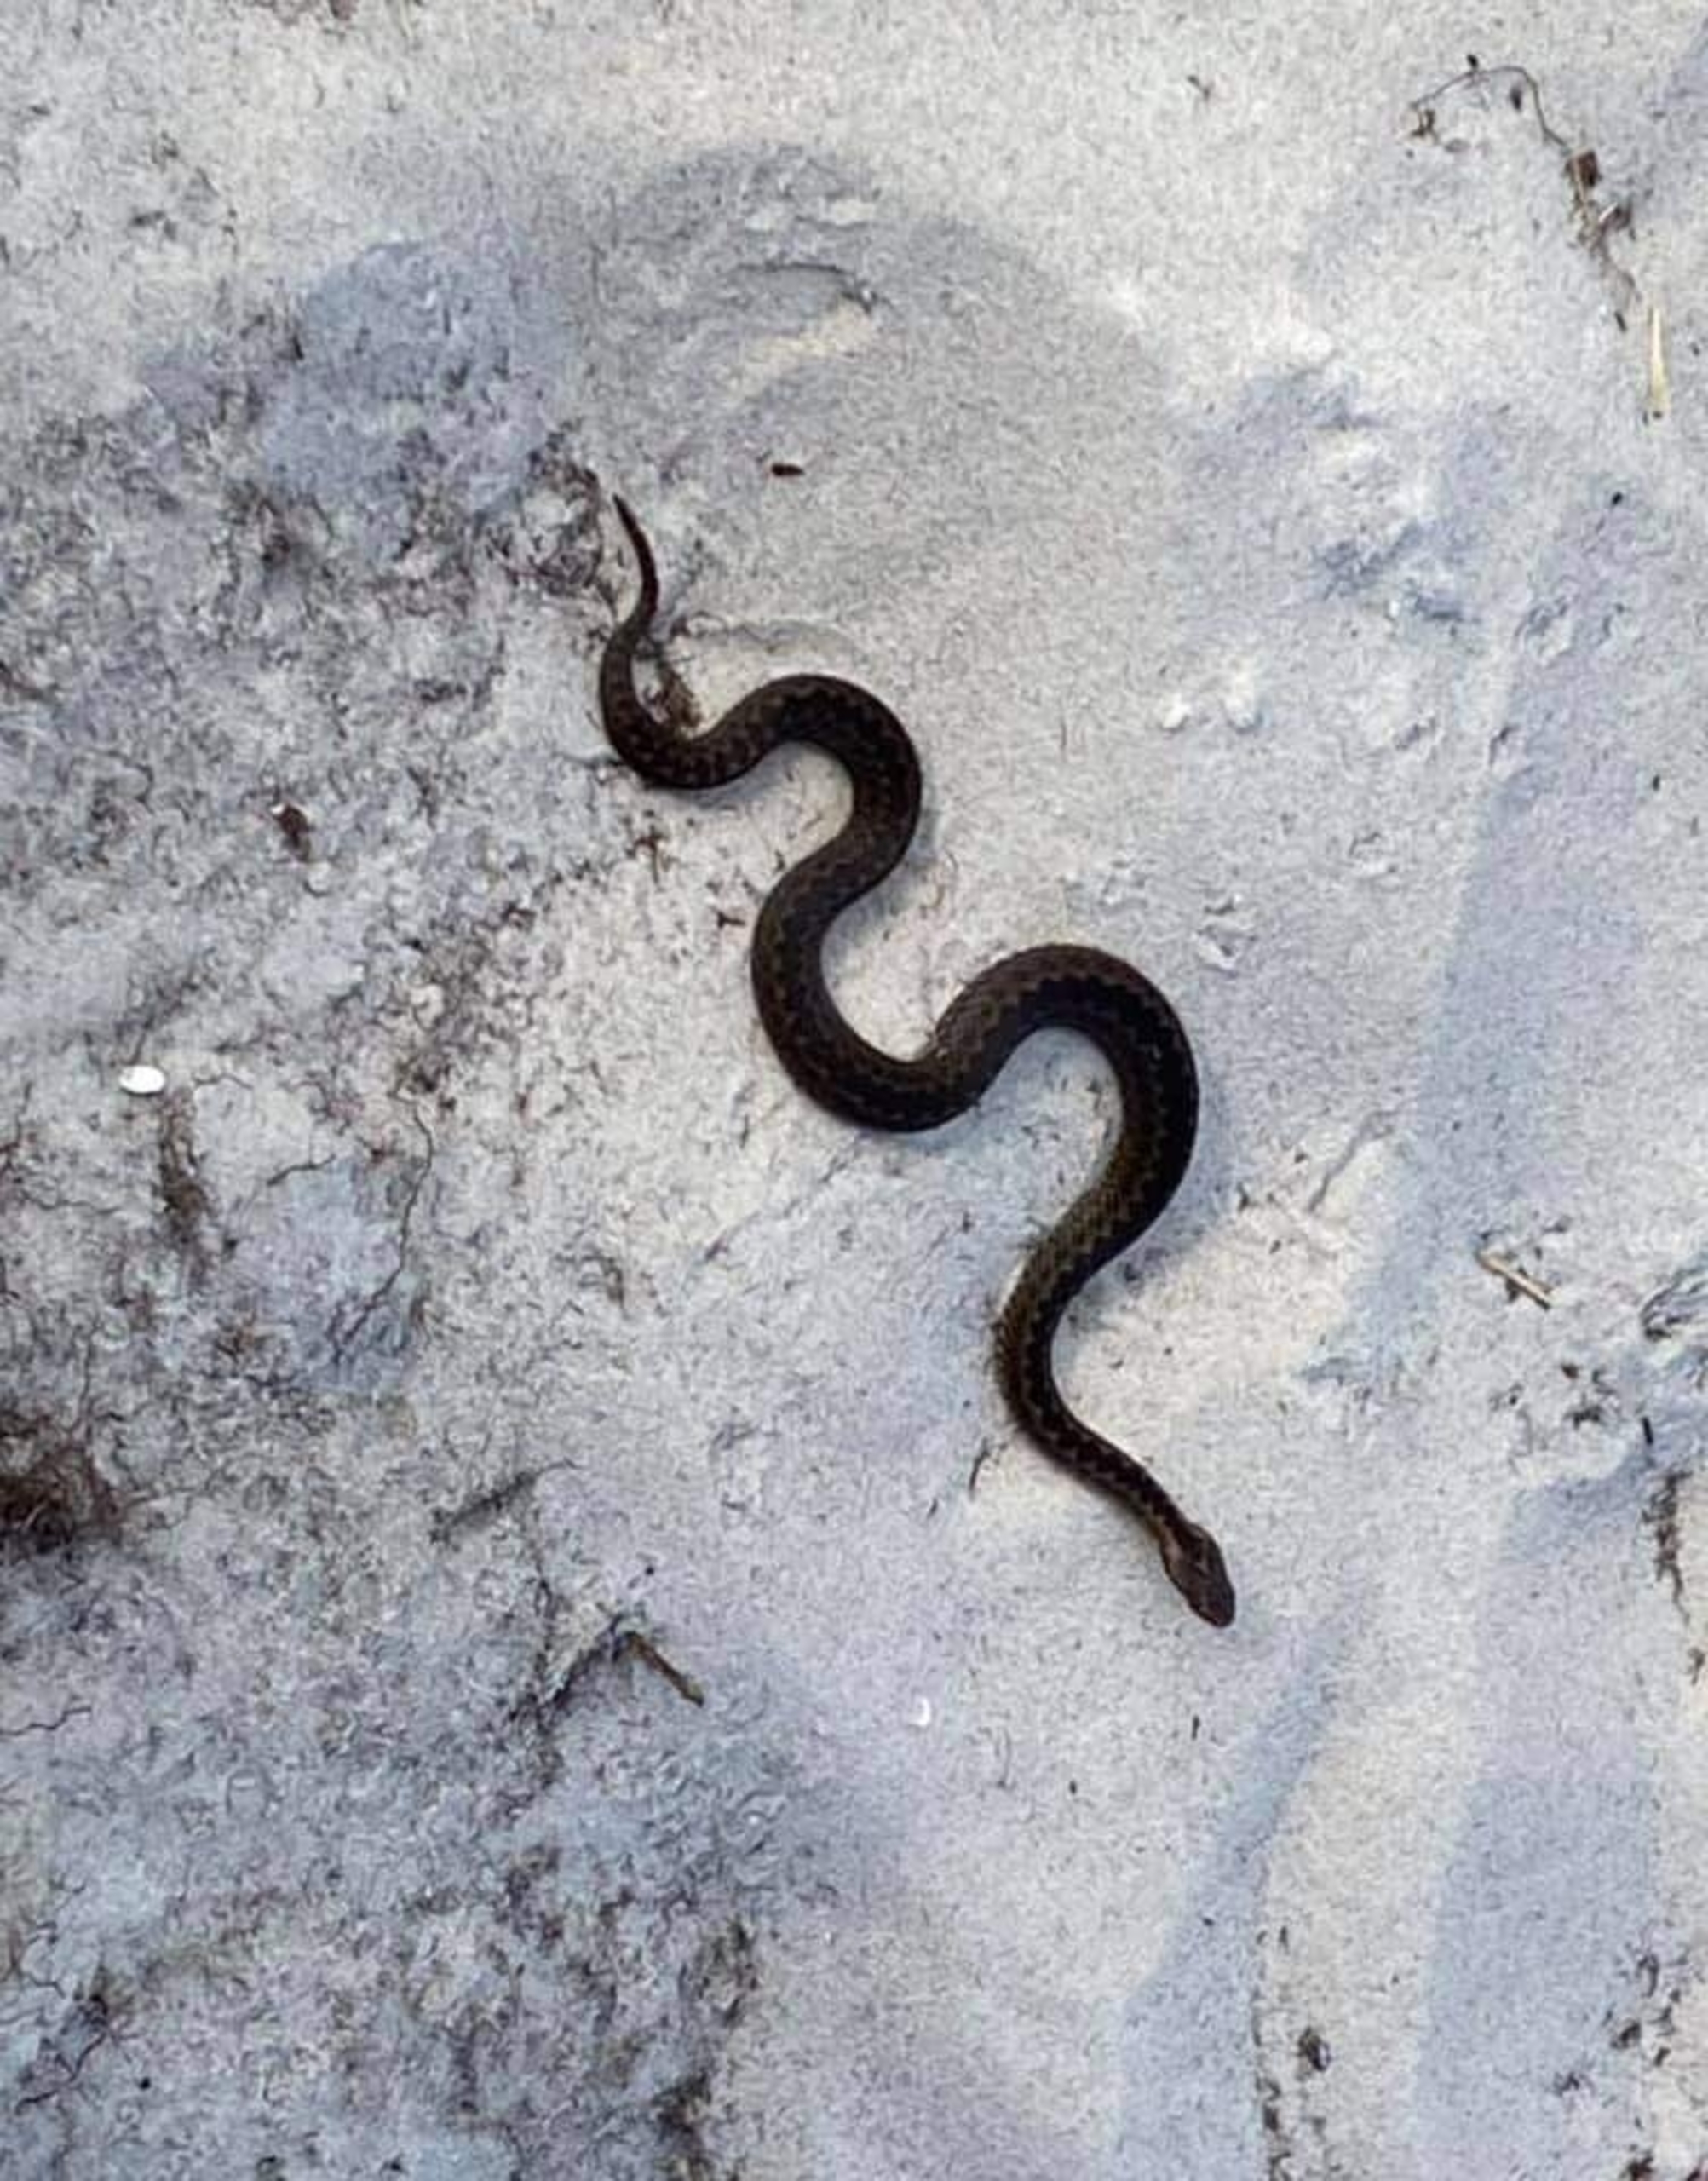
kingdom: Animalia
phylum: Chordata
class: Squamata
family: Viperidae
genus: Vipera
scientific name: Vipera berus
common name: Hugorm
